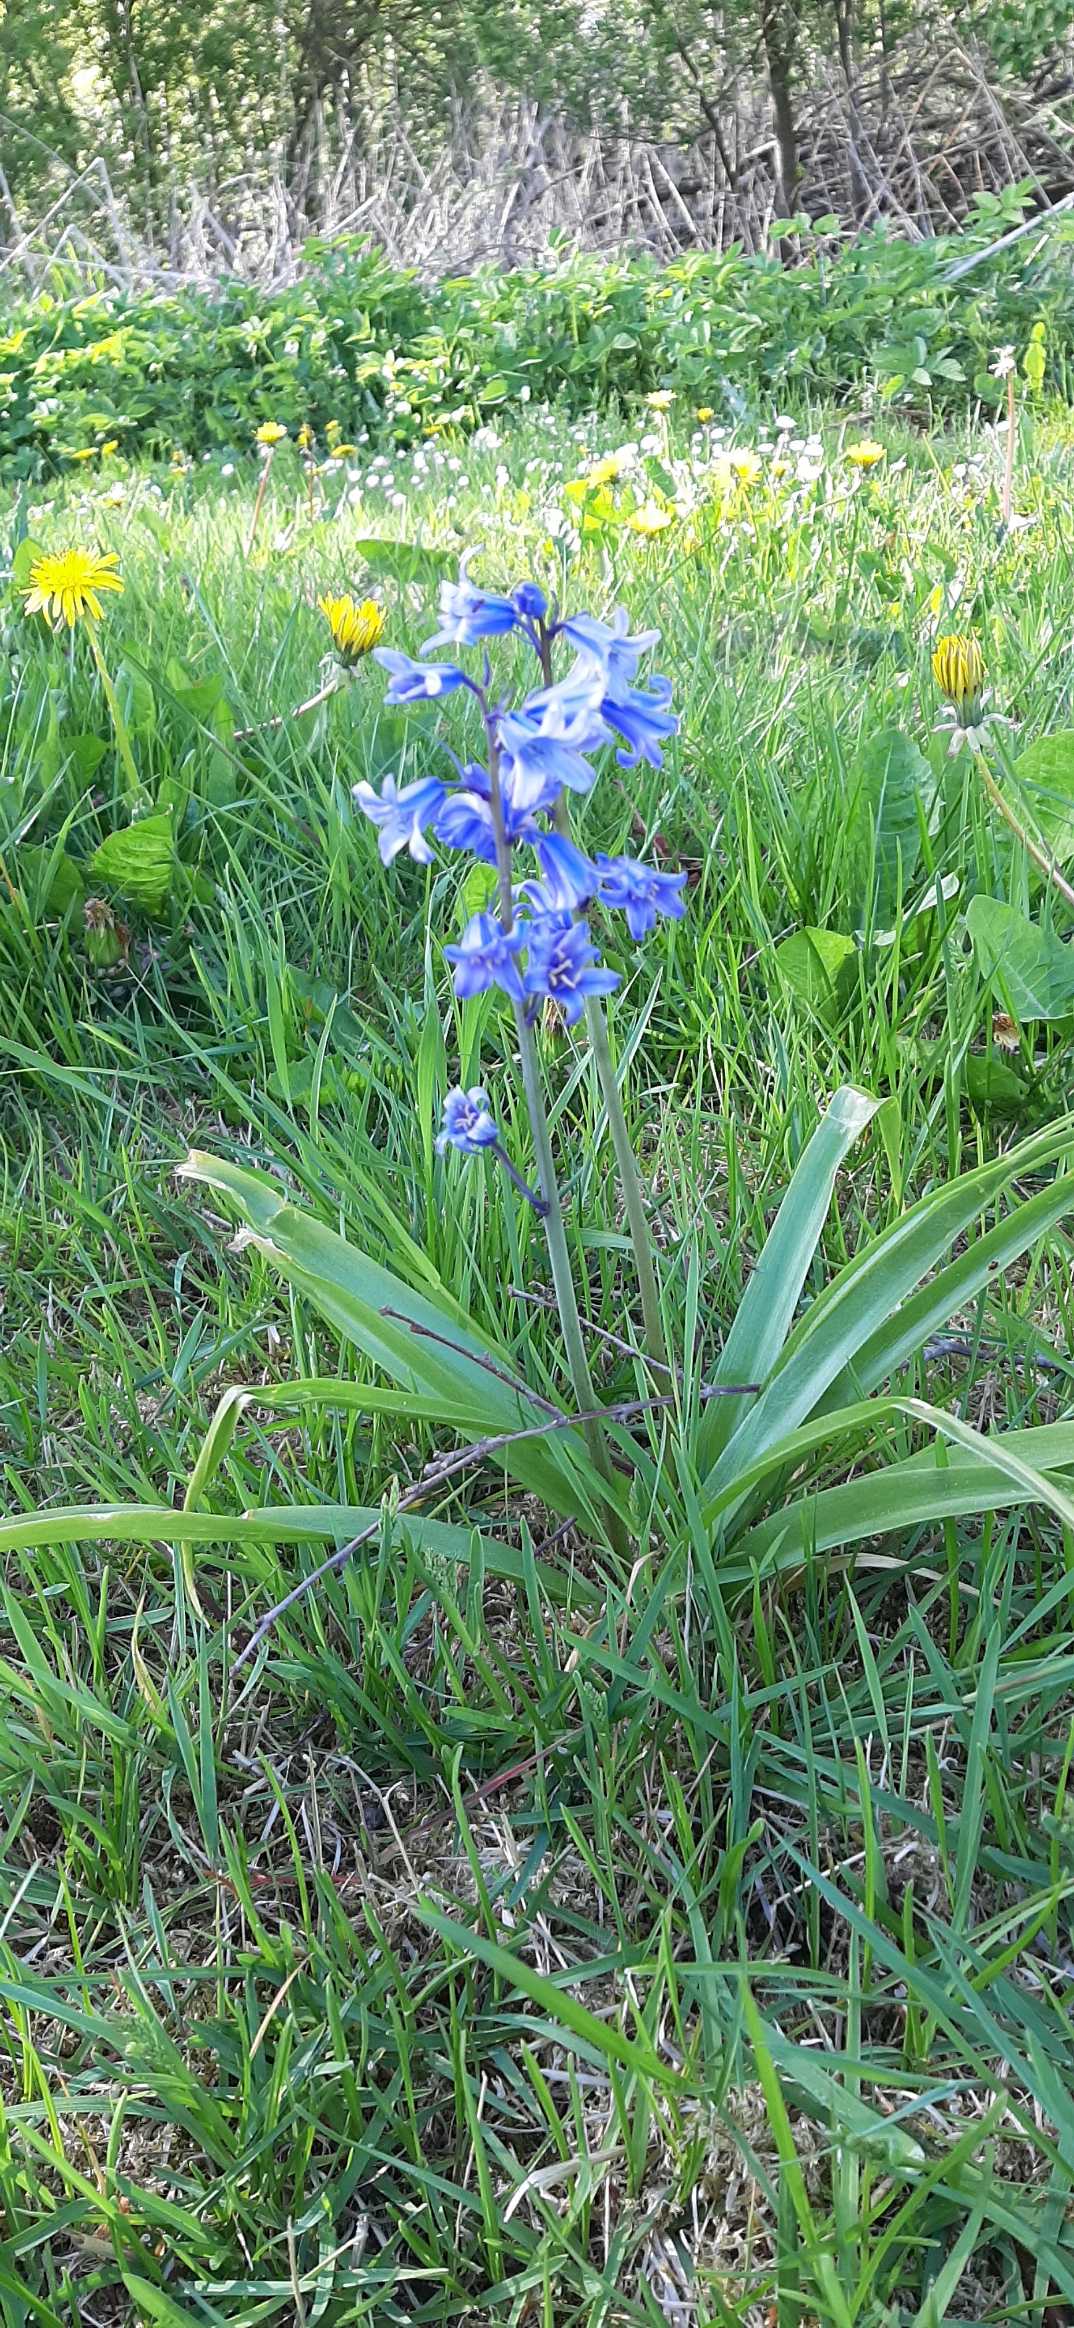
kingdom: Plantae
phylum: Tracheophyta
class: Liliopsida
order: Asparagales
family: Asparagaceae
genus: Hyacinthoides
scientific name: Hyacinthoides massartiana
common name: Hybrid-klokkeskilla
